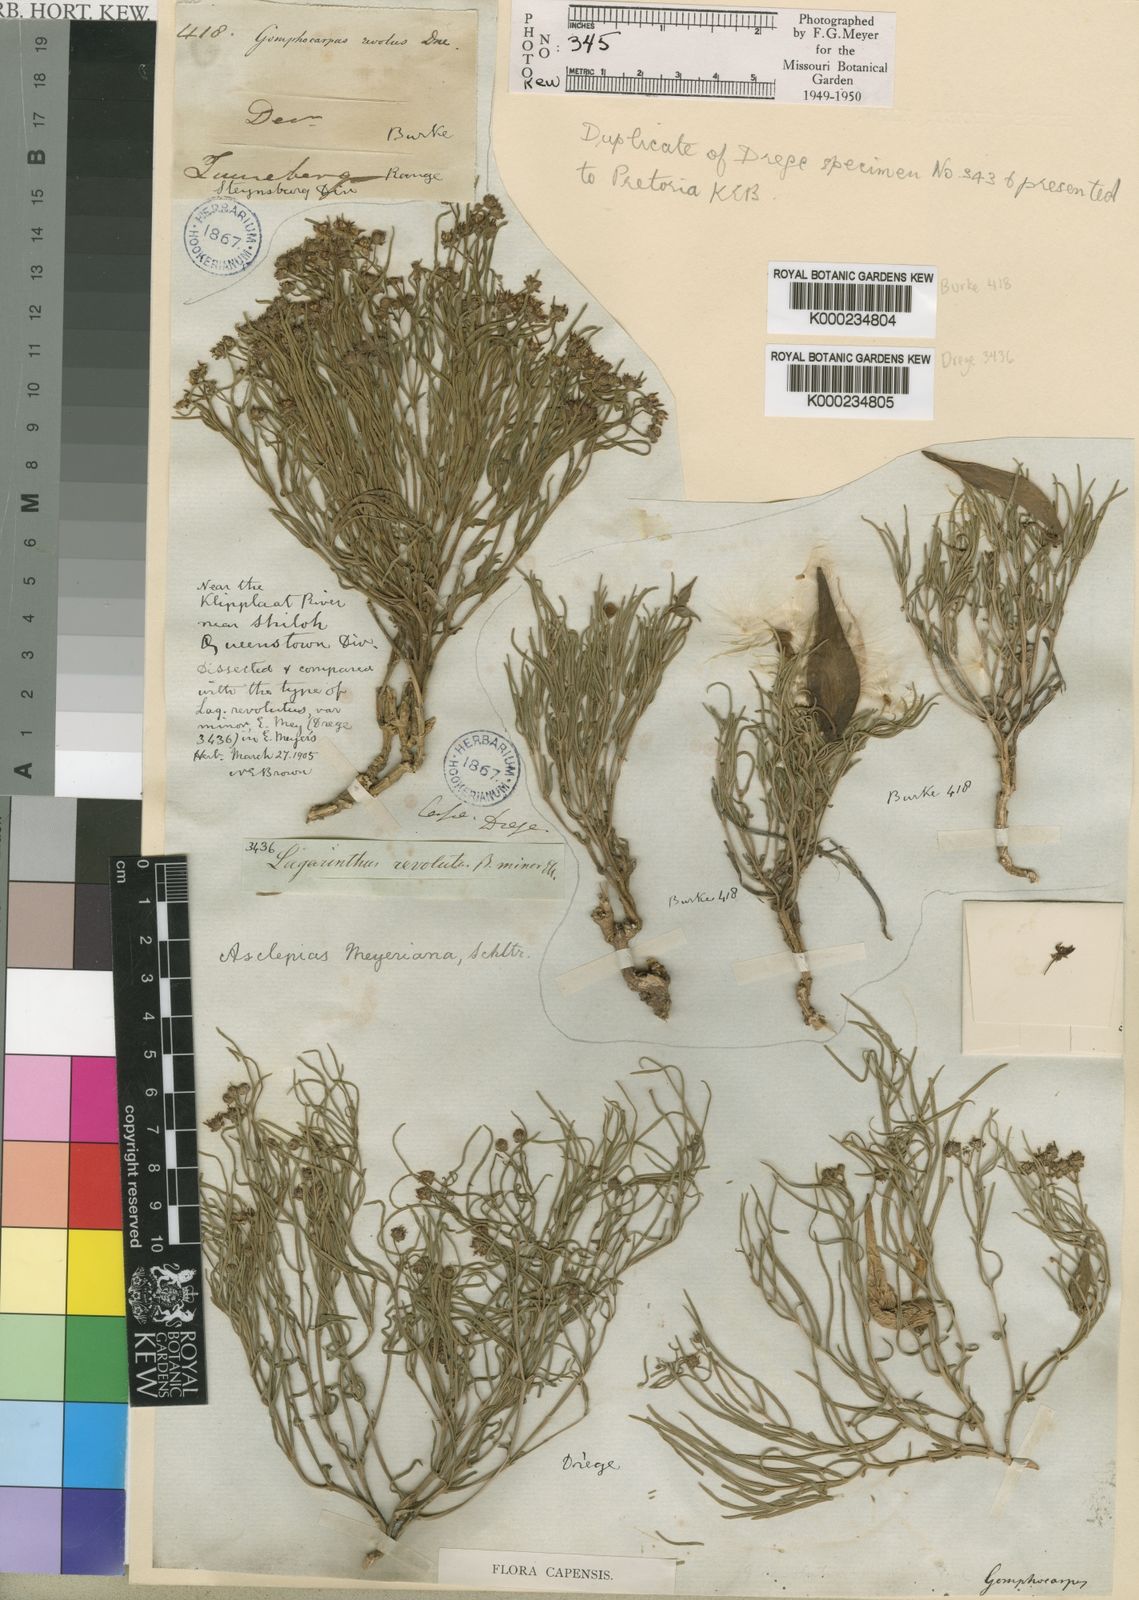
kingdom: Plantae
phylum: Tracheophyta
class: Magnoliopsida
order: Gentianales
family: Apocynaceae
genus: Asclepias
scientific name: Asclepias meyeriana
